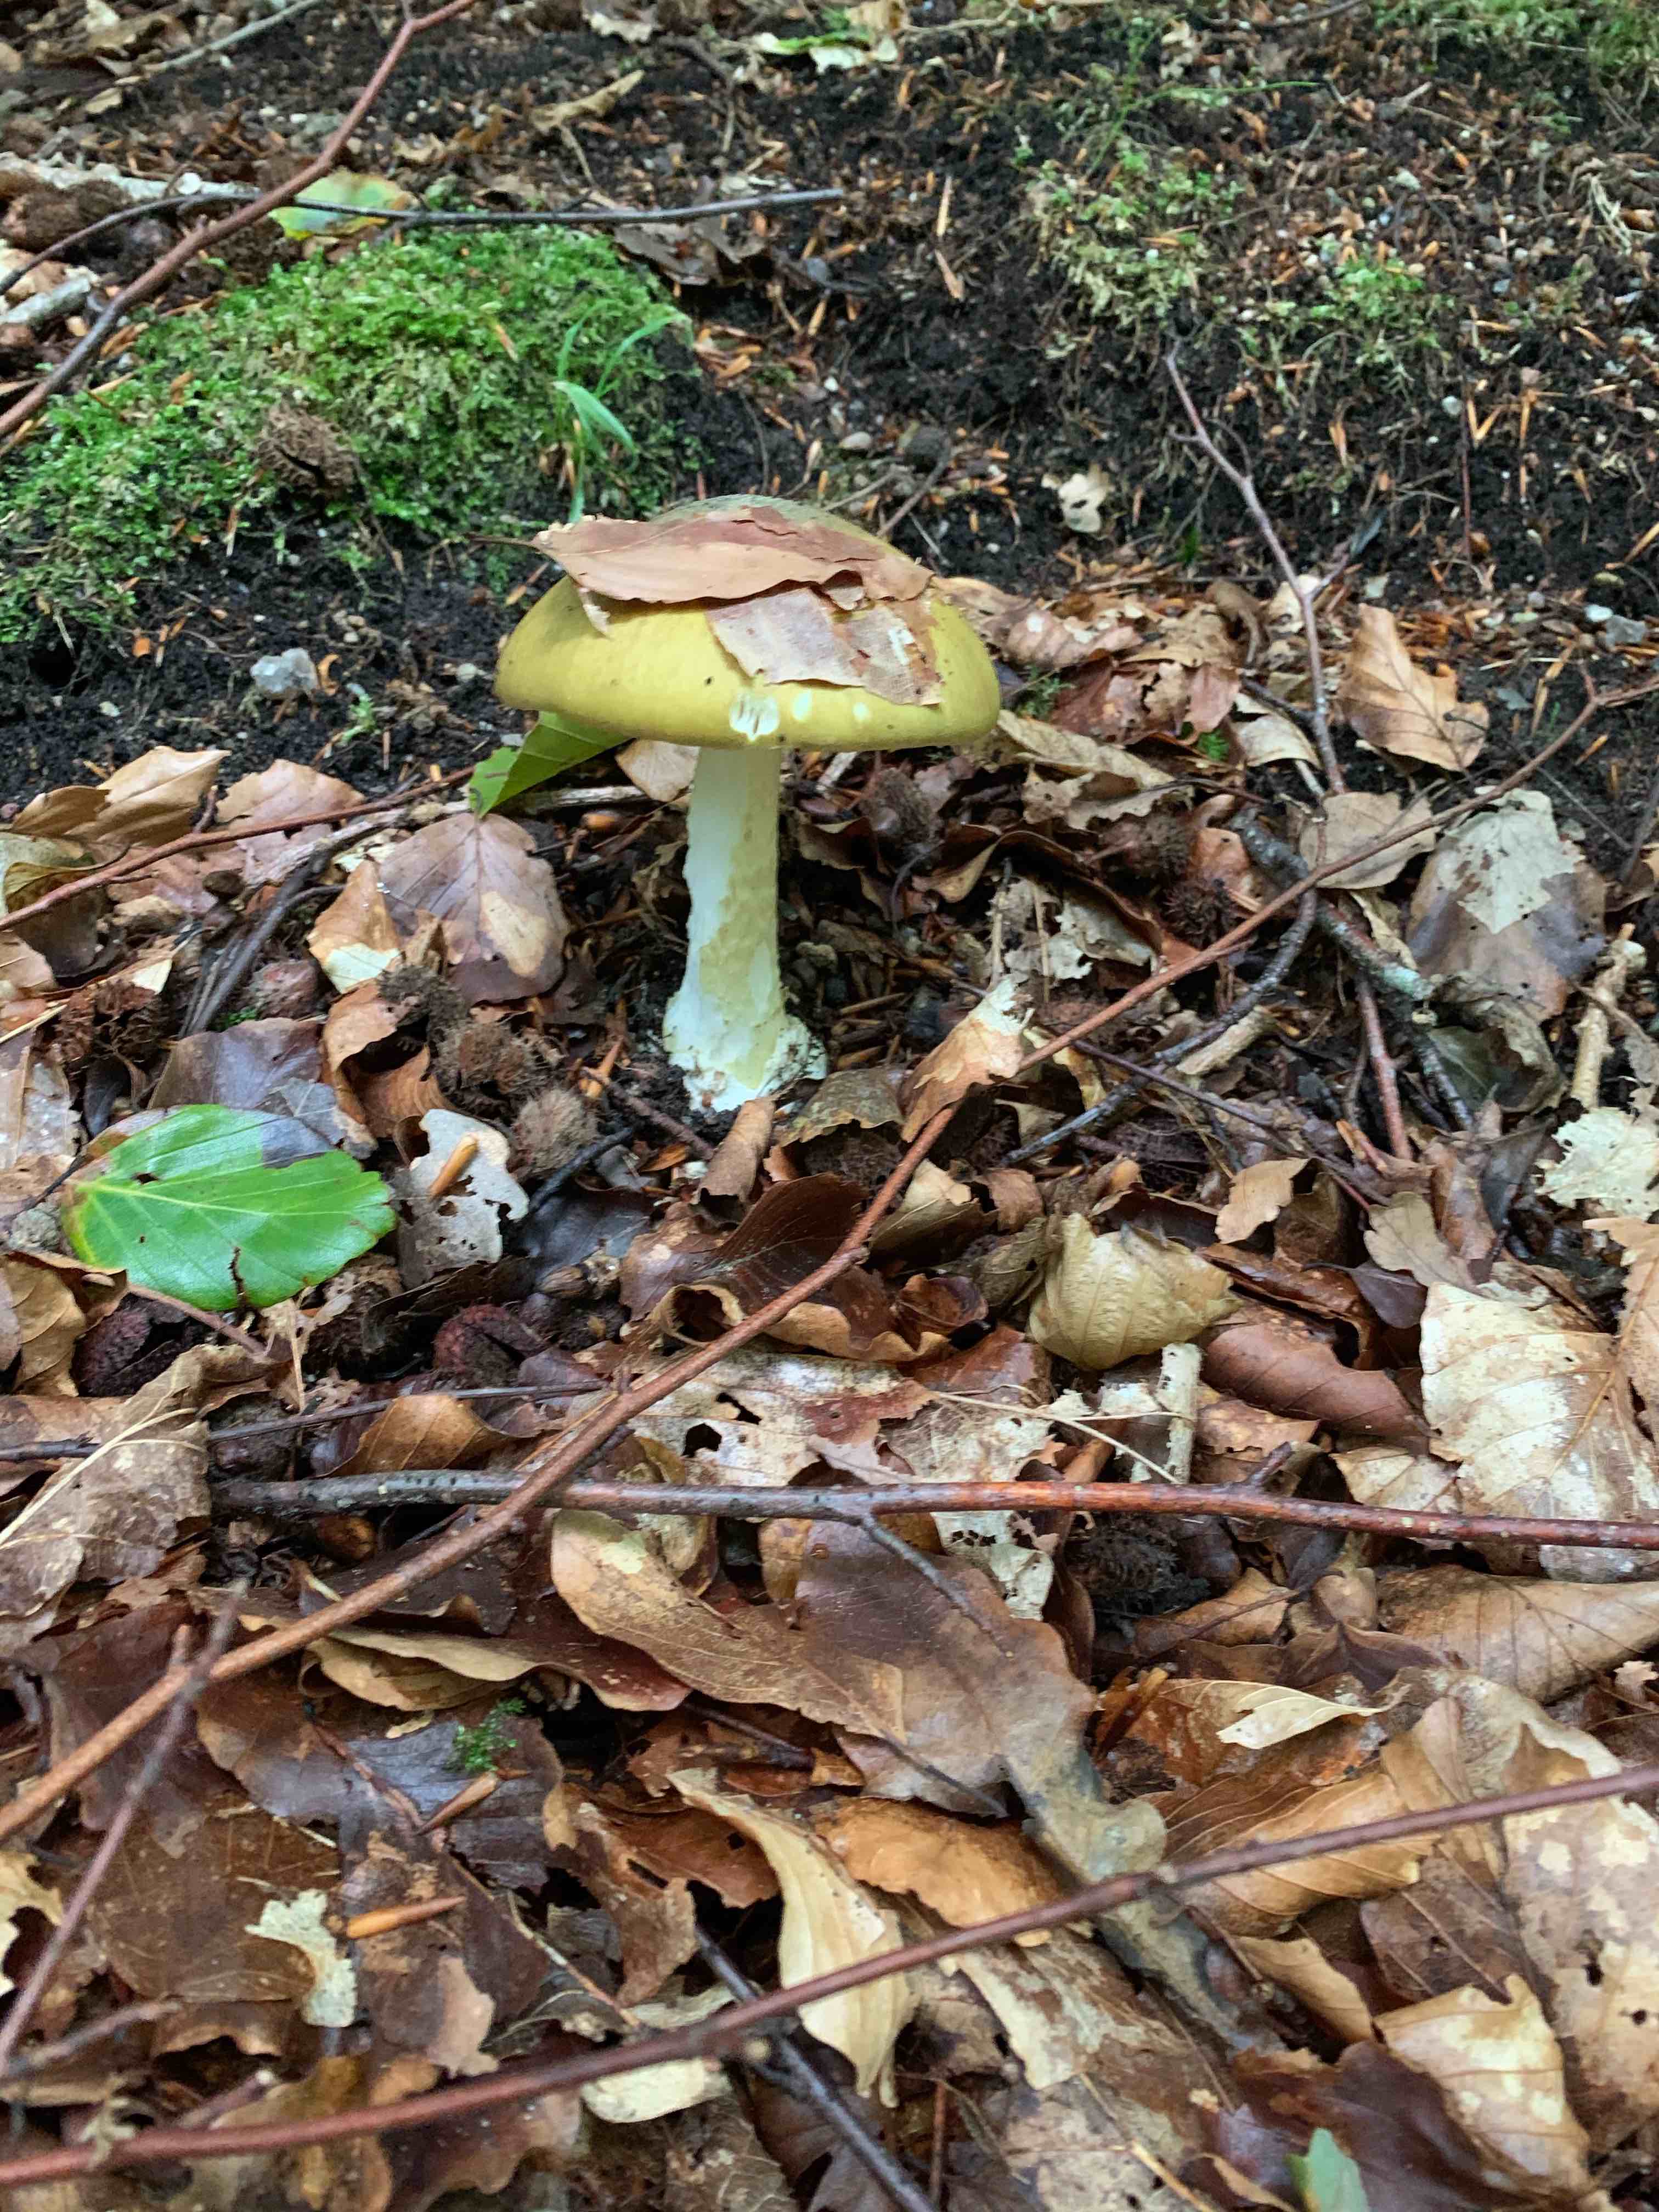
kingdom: Fungi
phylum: Basidiomycota
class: Agaricomycetes
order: Agaricales
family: Amanitaceae
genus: Amanita
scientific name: Amanita phalloides
